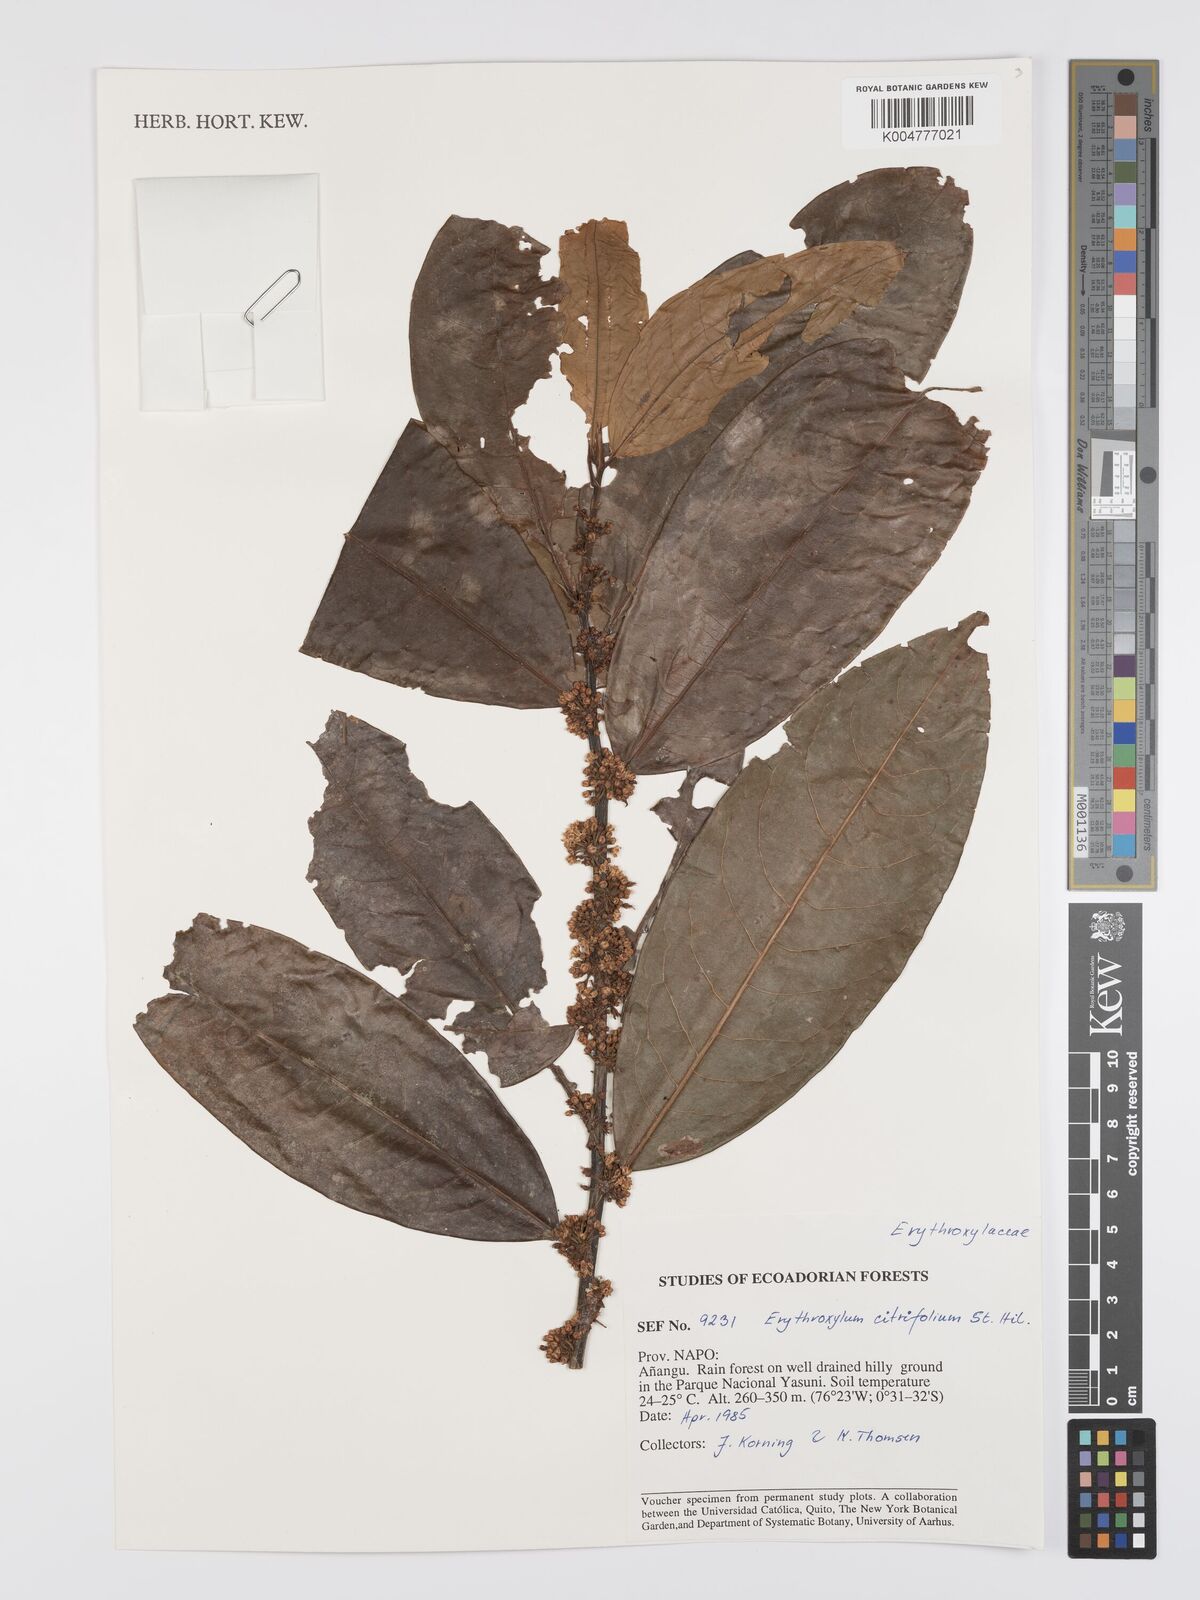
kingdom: Plantae
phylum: Tracheophyta
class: Magnoliopsida
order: Malpighiales
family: Erythroxylaceae
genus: Erythroxylum
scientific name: Erythroxylum citrifolium
